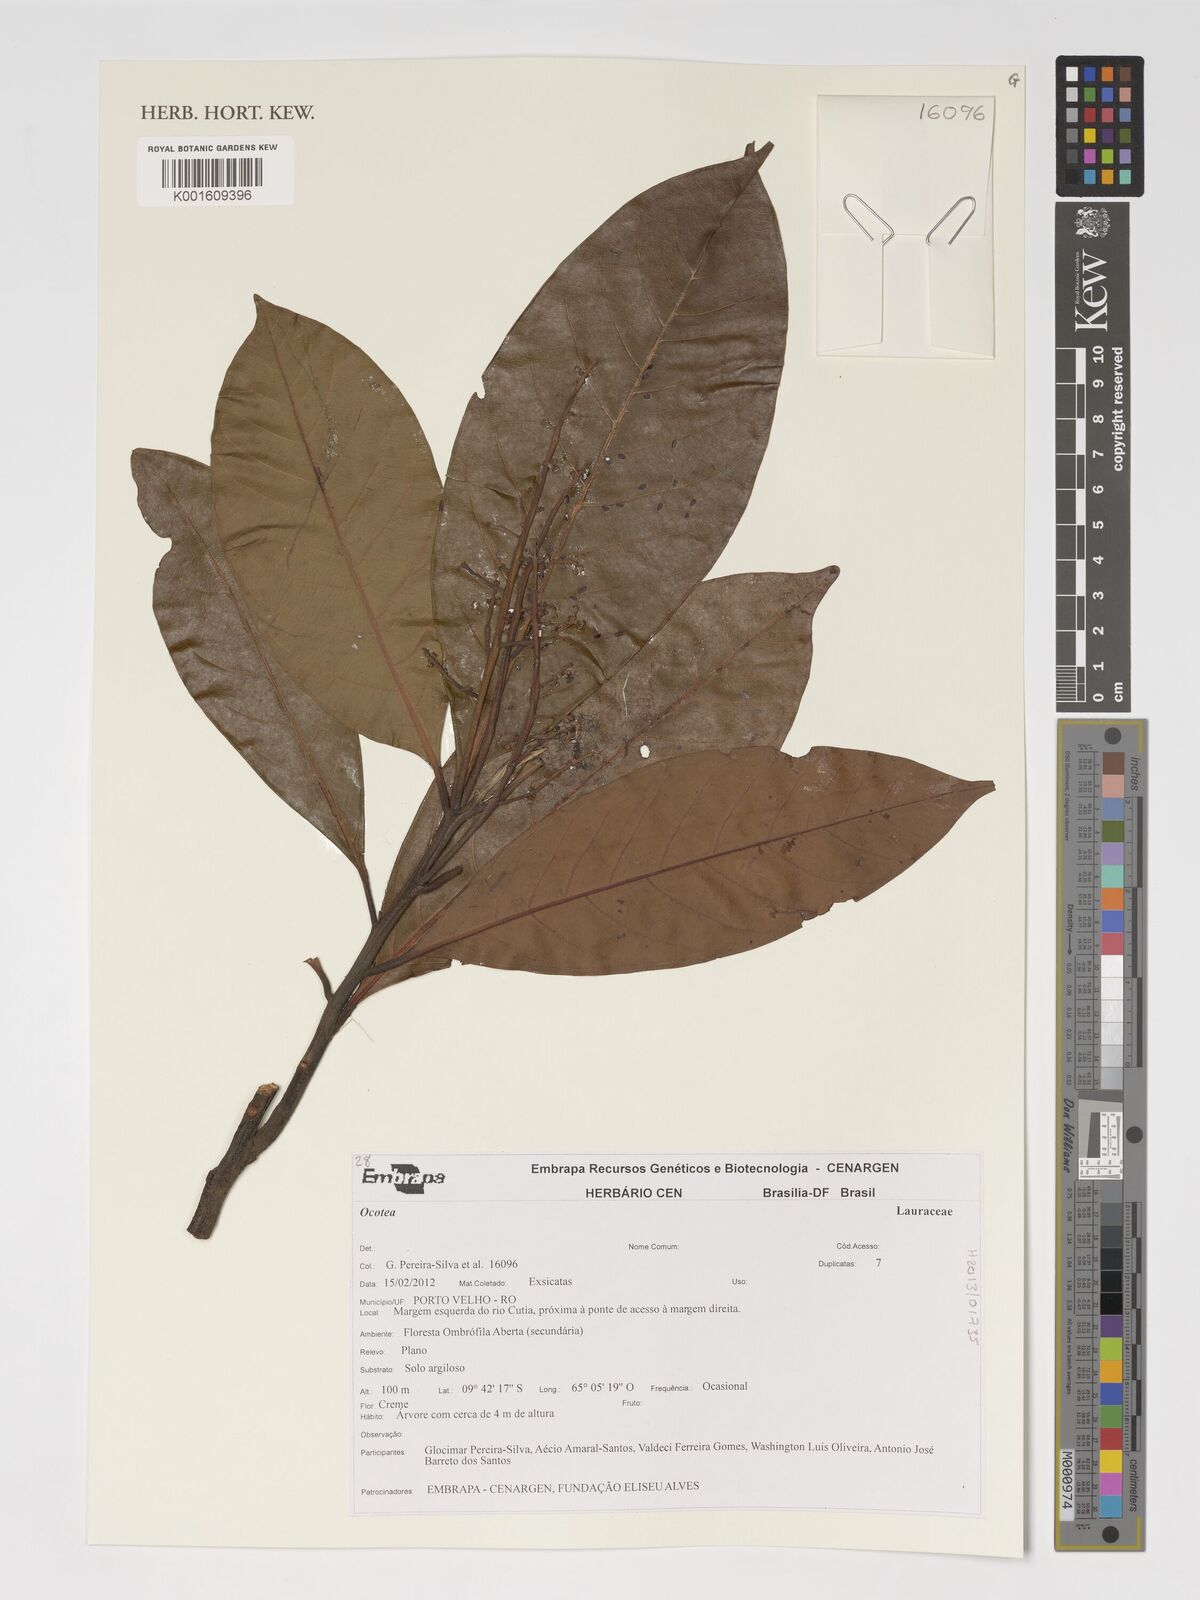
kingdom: Plantae
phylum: Tracheophyta
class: Magnoliopsida
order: Laurales
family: Lauraceae
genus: Ocotea
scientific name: Ocotea
